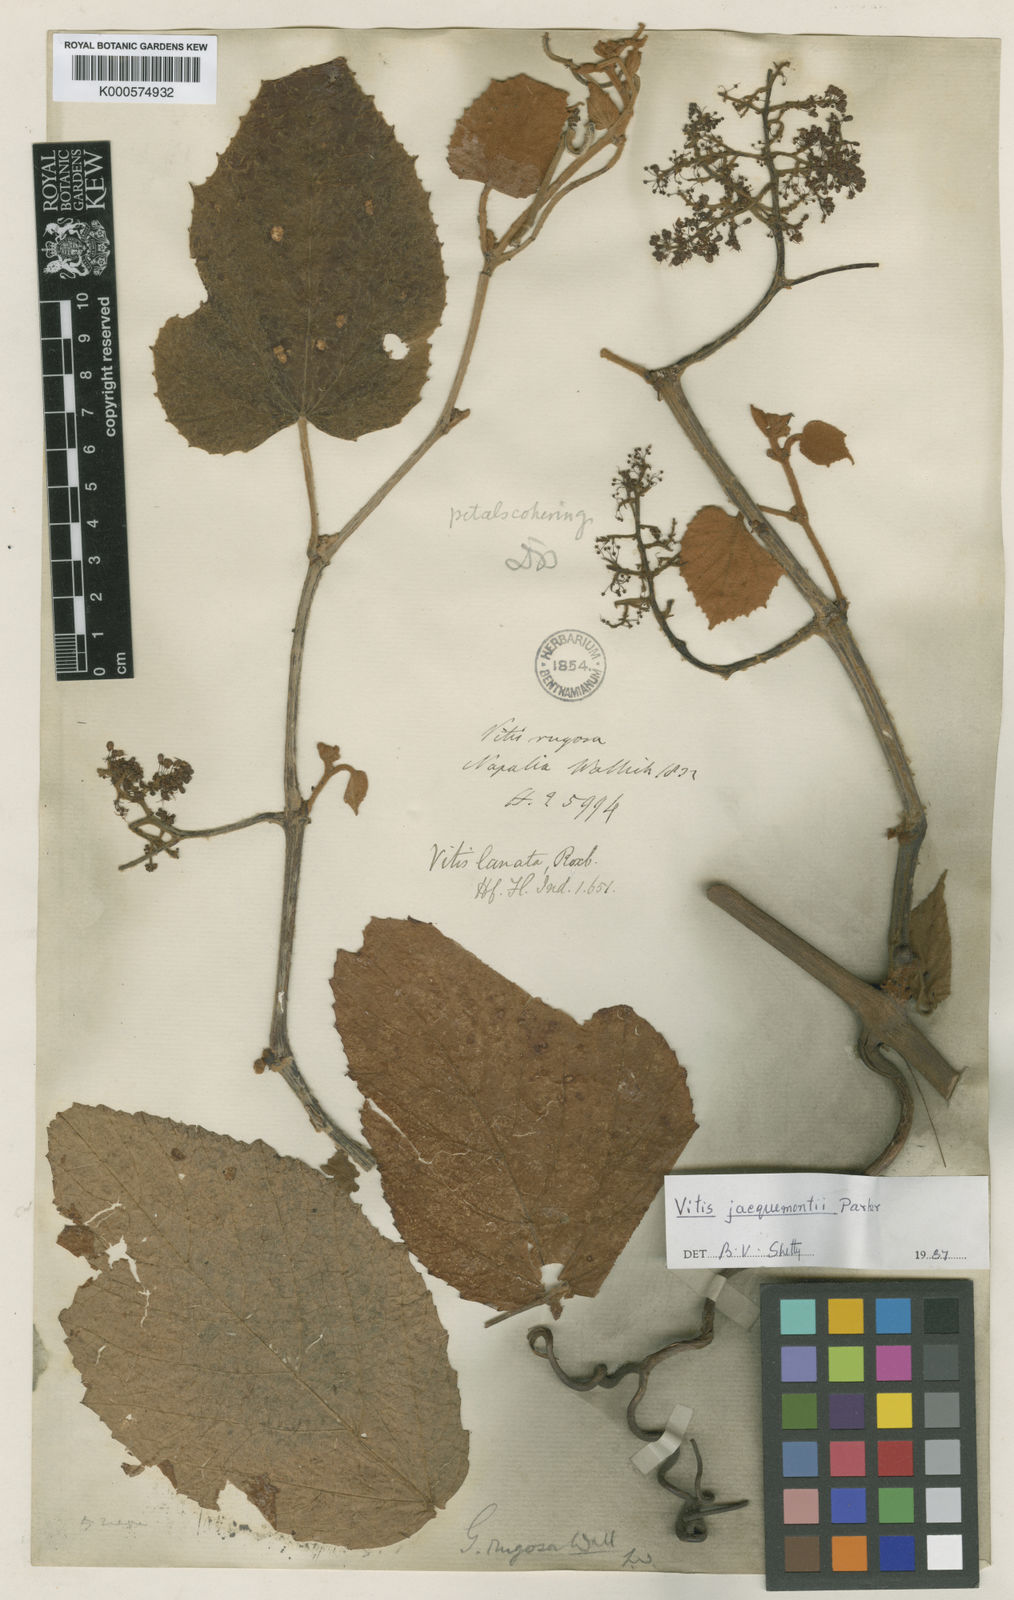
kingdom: Plantae
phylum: Tracheophyta
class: Magnoliopsida
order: Vitales
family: Vitaceae
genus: Vitis
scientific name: Vitis heyneana
